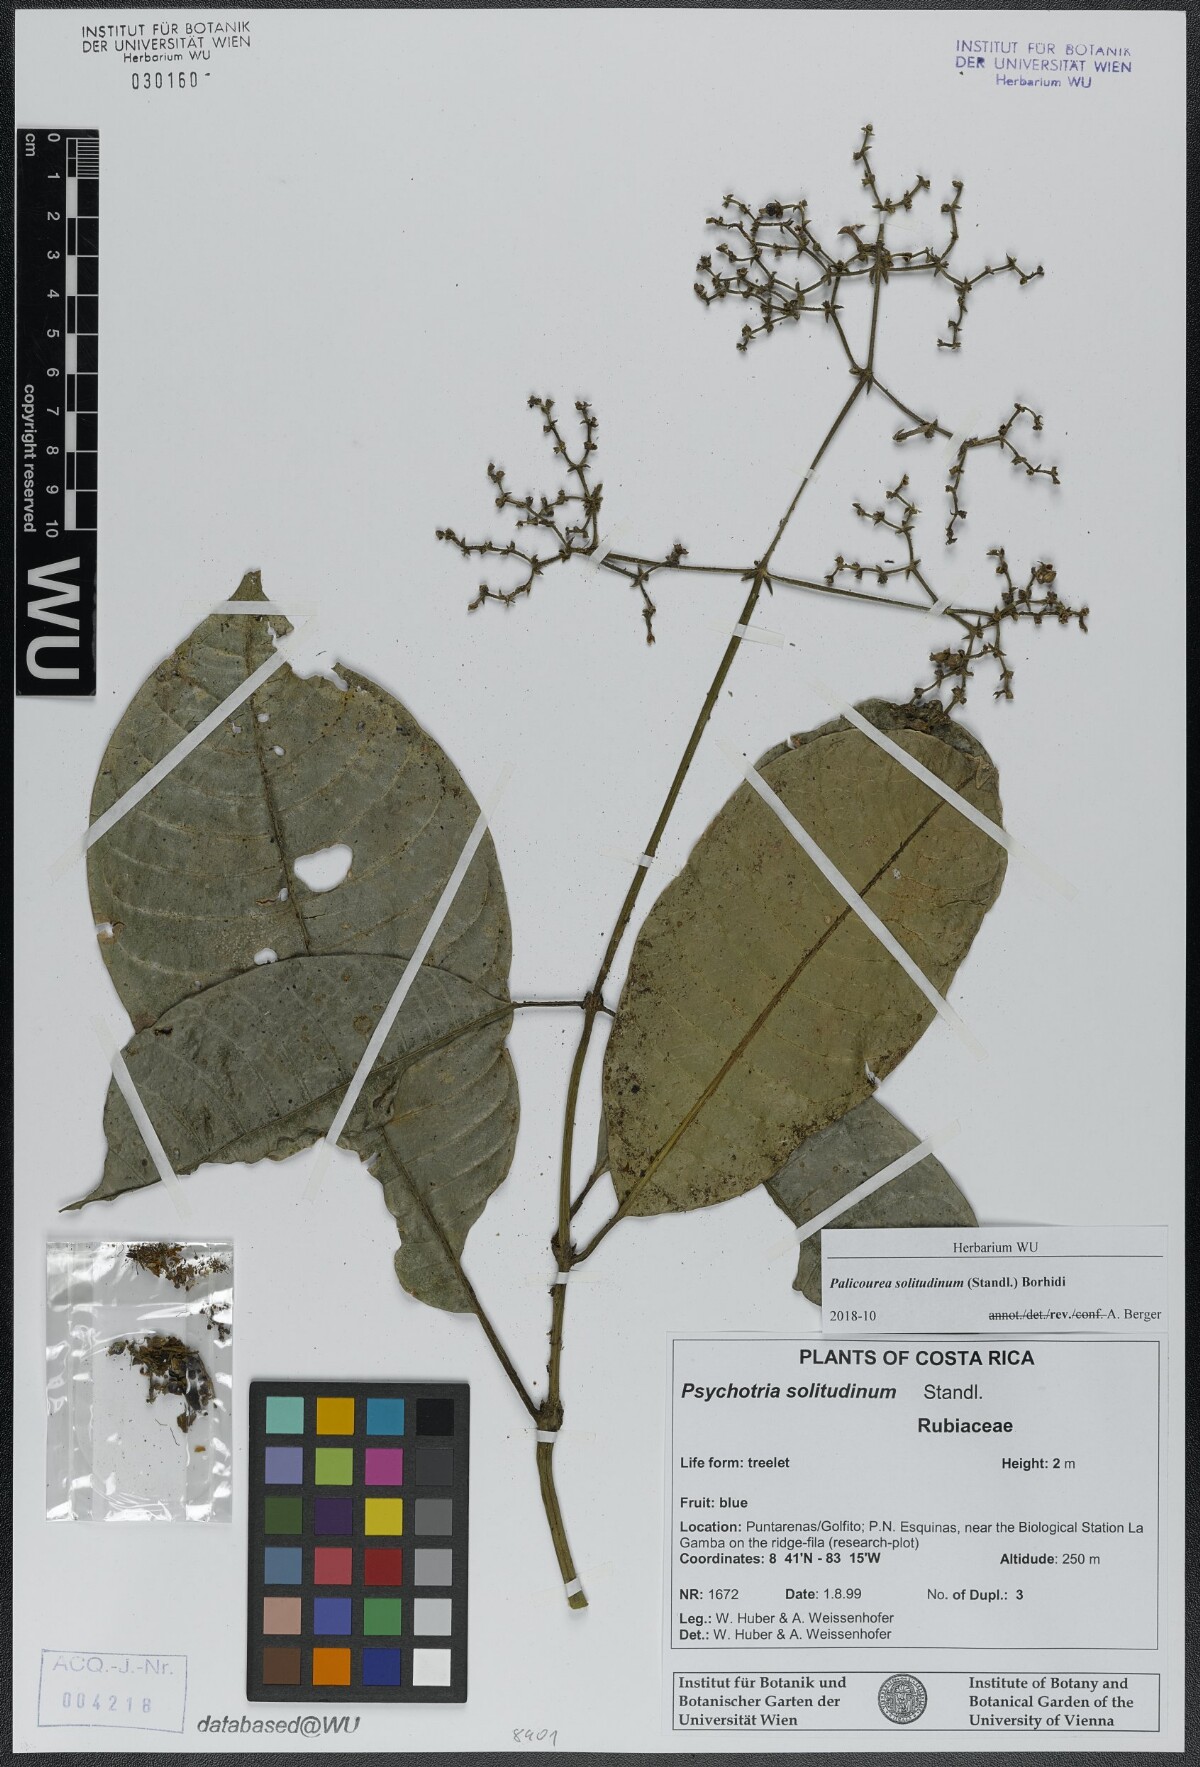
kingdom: Plantae
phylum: Tracheophyta
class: Magnoliopsida
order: Gentianales
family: Rubiaceae
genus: Palicourea
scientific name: Palicourea solitudinum
